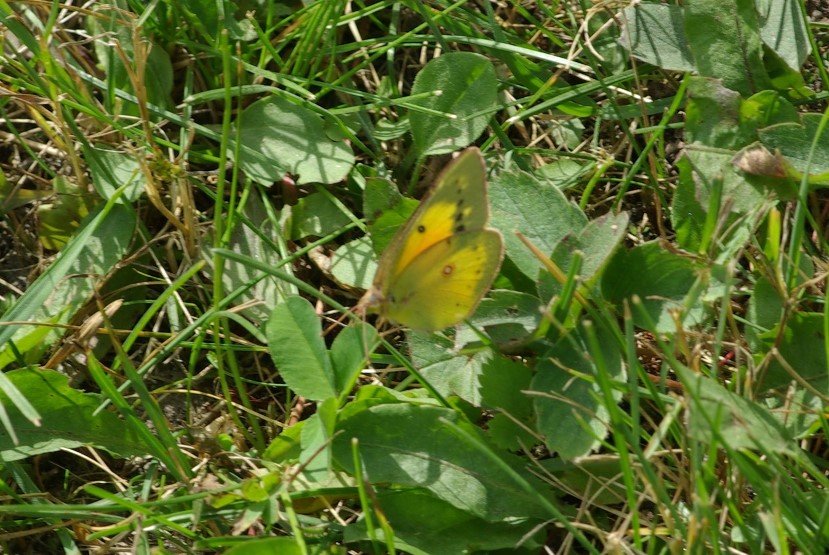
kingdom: Animalia
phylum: Arthropoda
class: Insecta
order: Lepidoptera
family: Pieridae
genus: Colias
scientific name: Colias eurytheme
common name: Orange Sulphur
